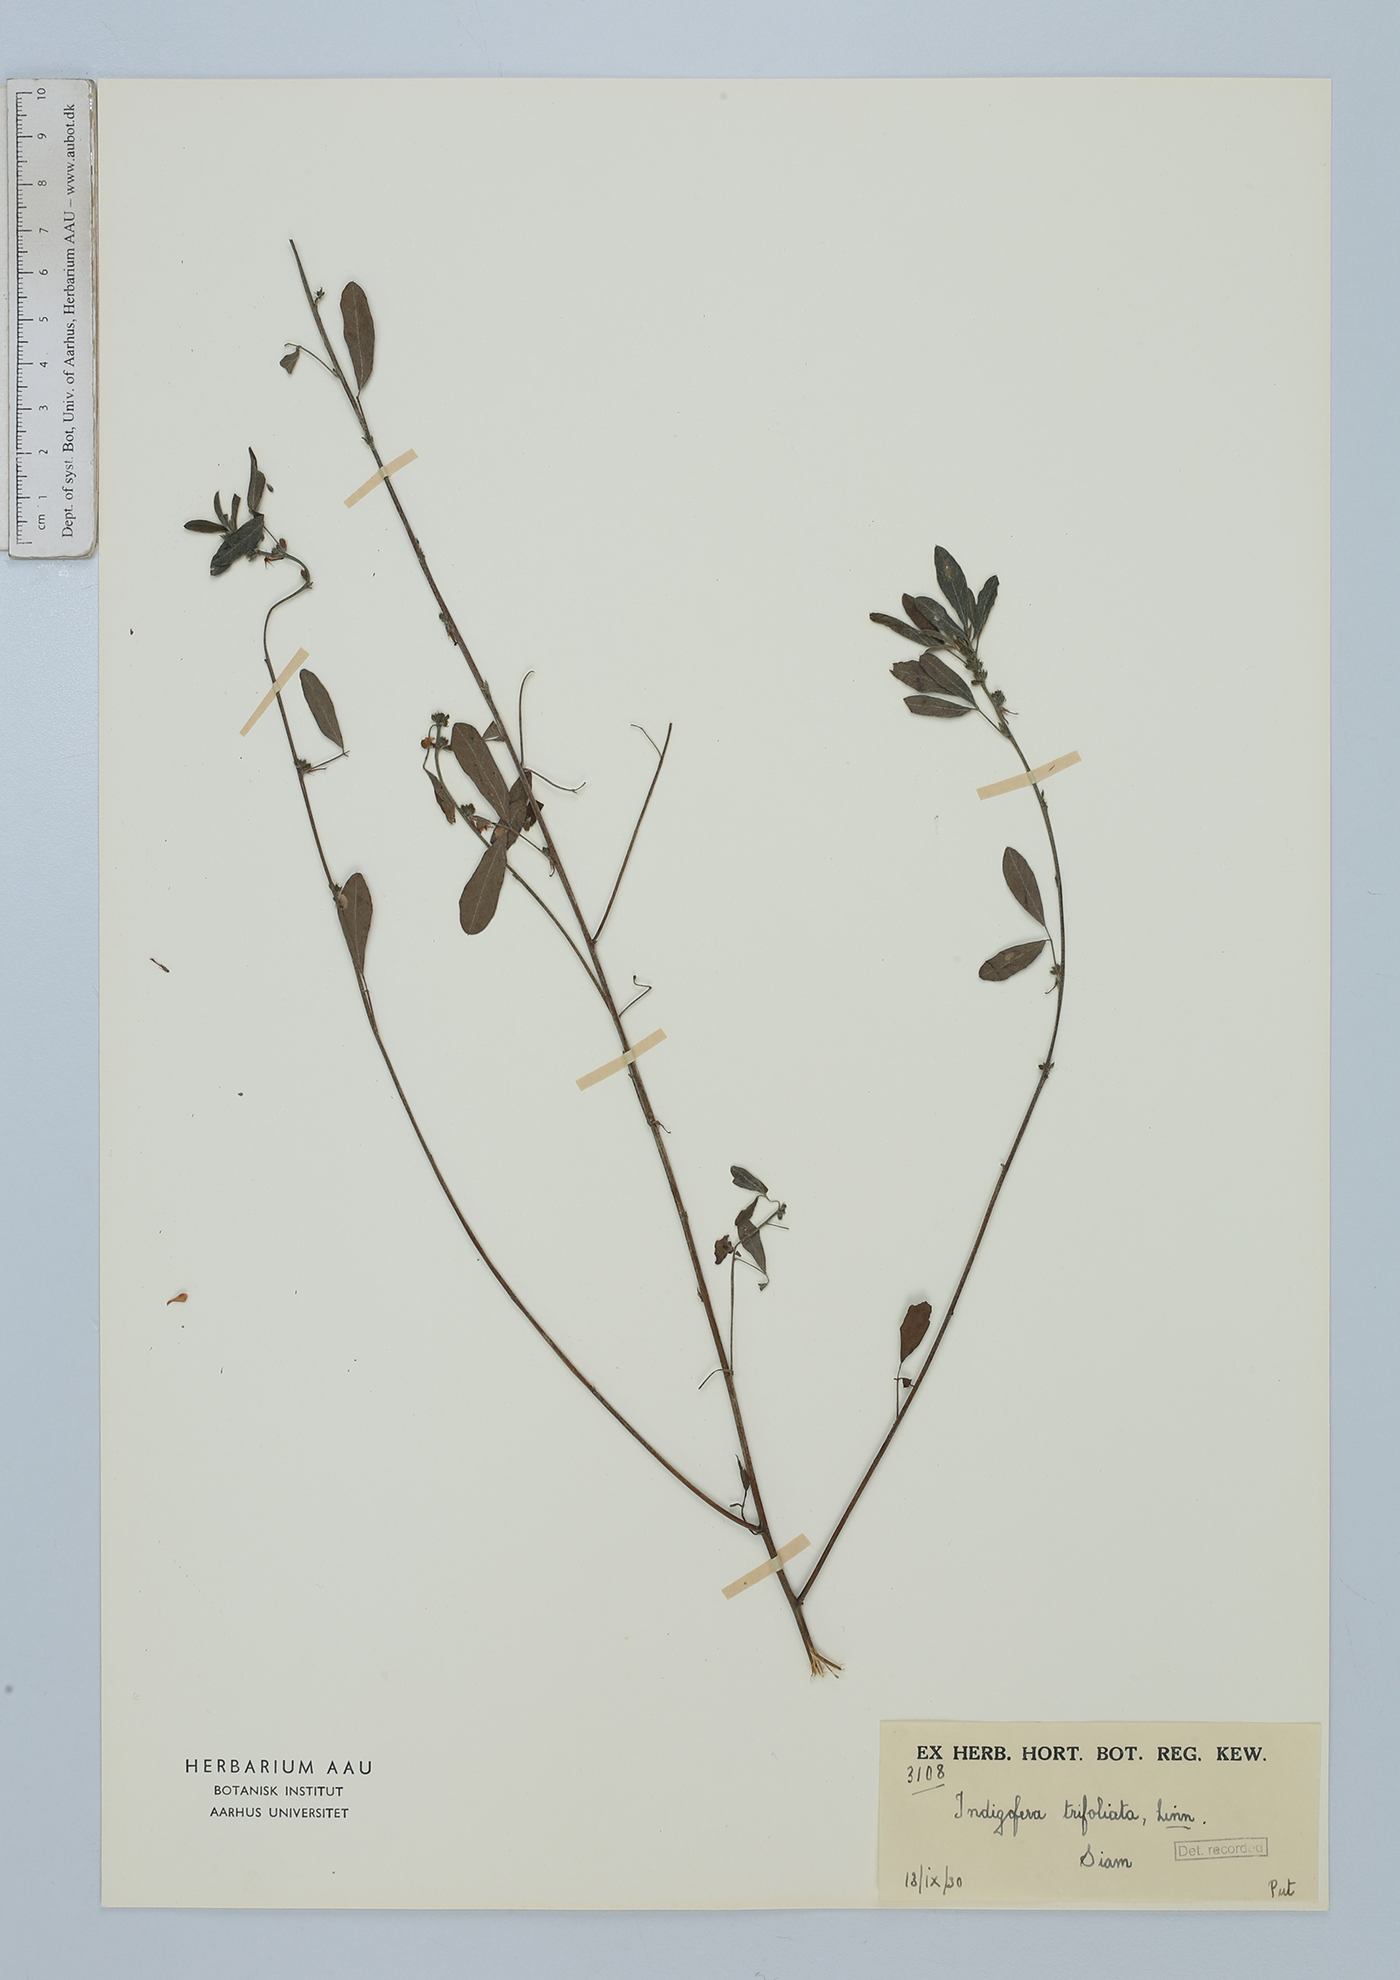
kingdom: Plantae
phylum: Tracheophyta
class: Magnoliopsida
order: Fabales
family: Fabaceae
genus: Indigofera
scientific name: Indigofera trifoliata
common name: Threeleaf indigo
